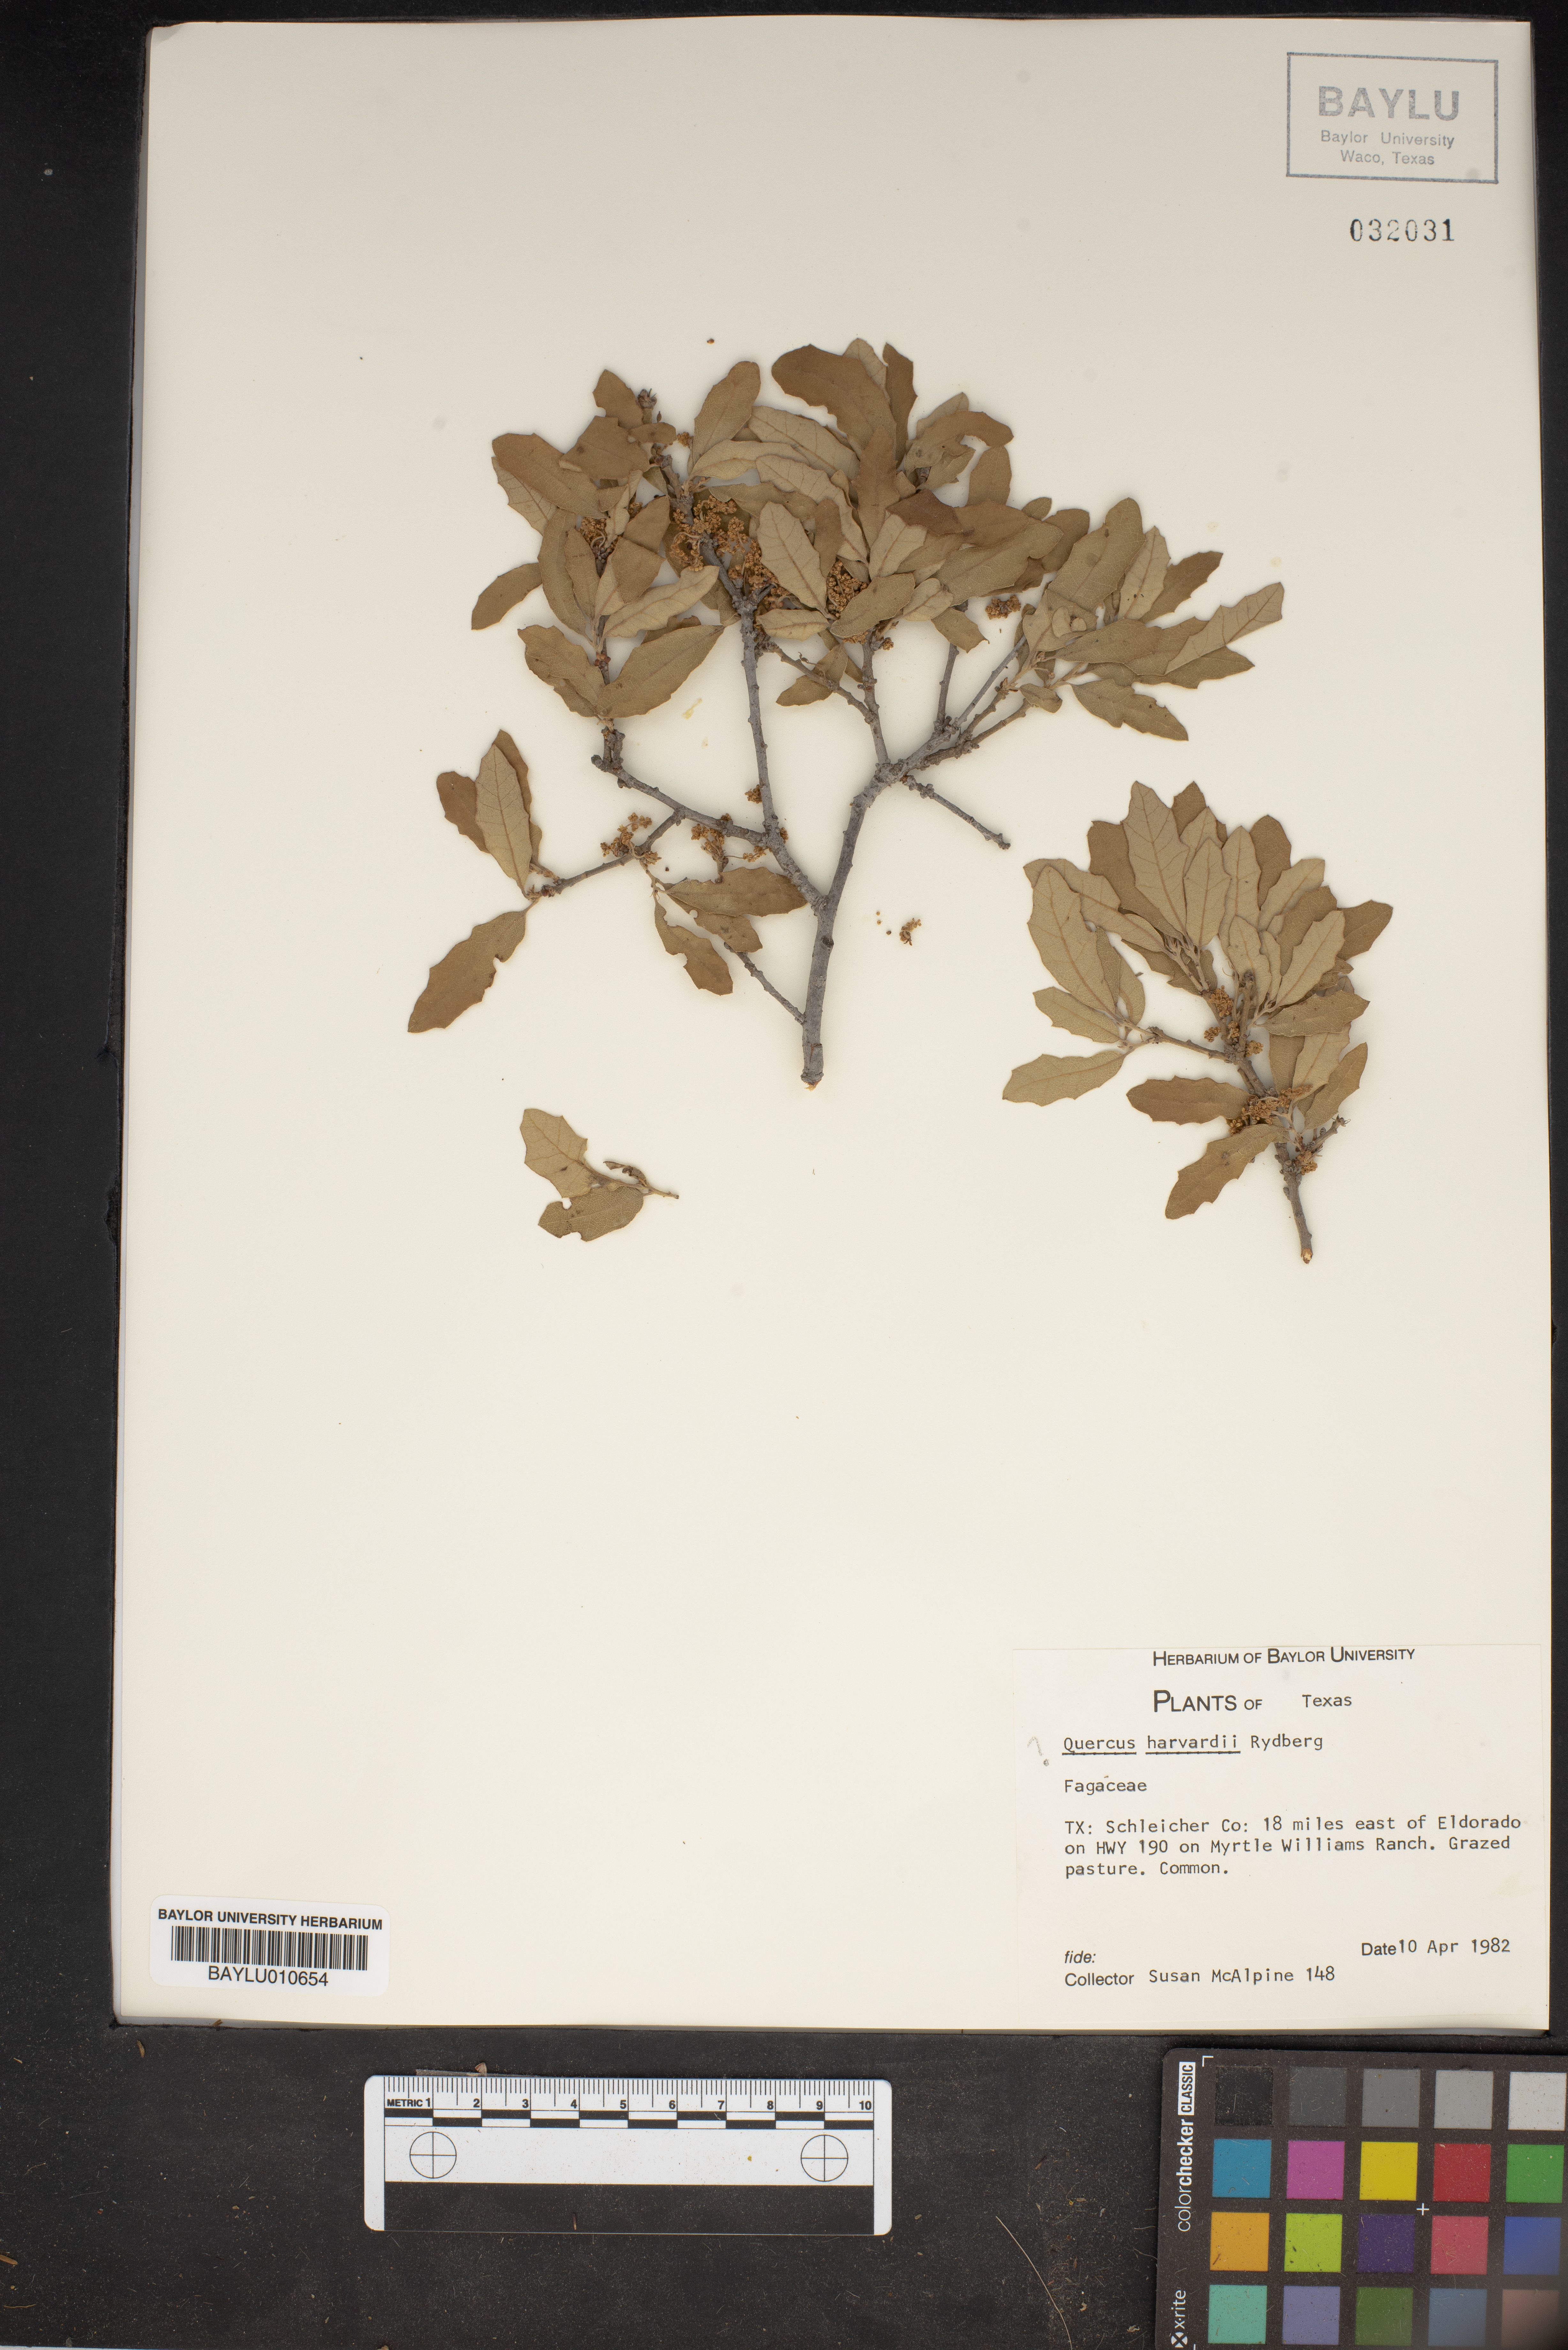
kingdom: Plantae
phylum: Tracheophyta
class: Magnoliopsida
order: Fagales
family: Fagaceae
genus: Quercus
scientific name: Quercus havardii
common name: Shinnery oak
